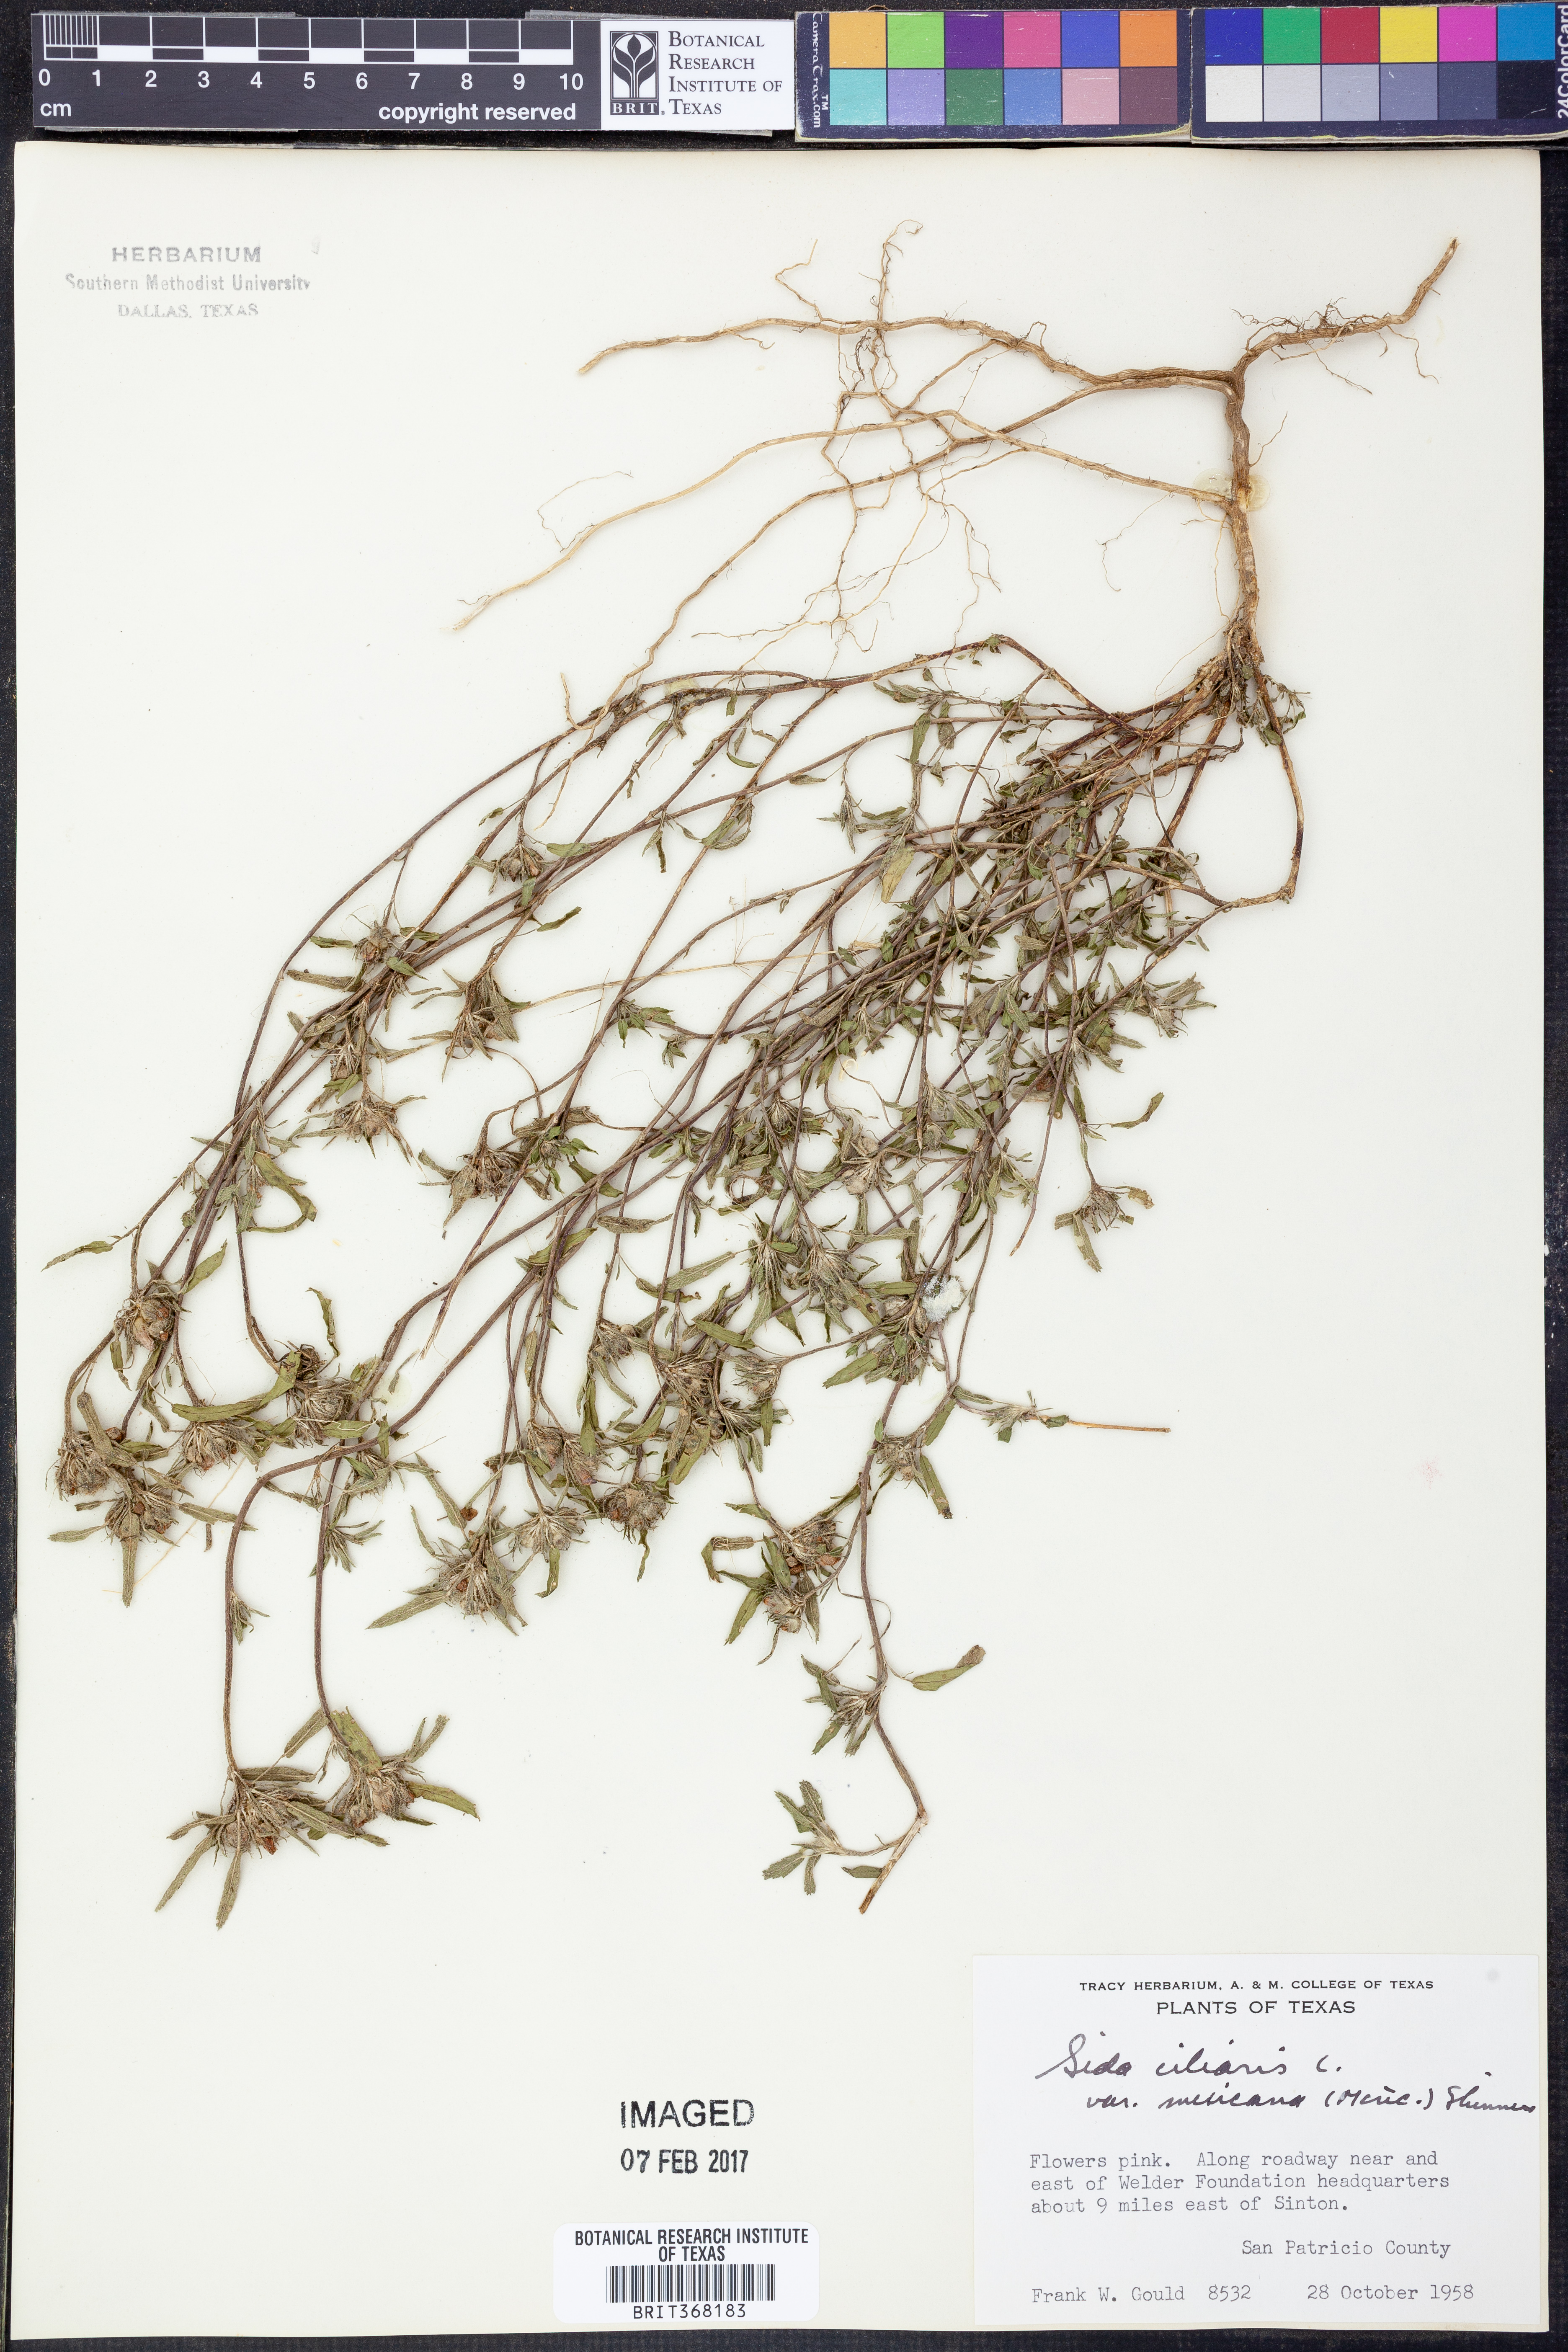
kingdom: Plantae
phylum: Tracheophyta
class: Magnoliopsida
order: Malvales
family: Malvaceae
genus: Sida
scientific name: Sida ciliaris
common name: Bracted fanpetals
